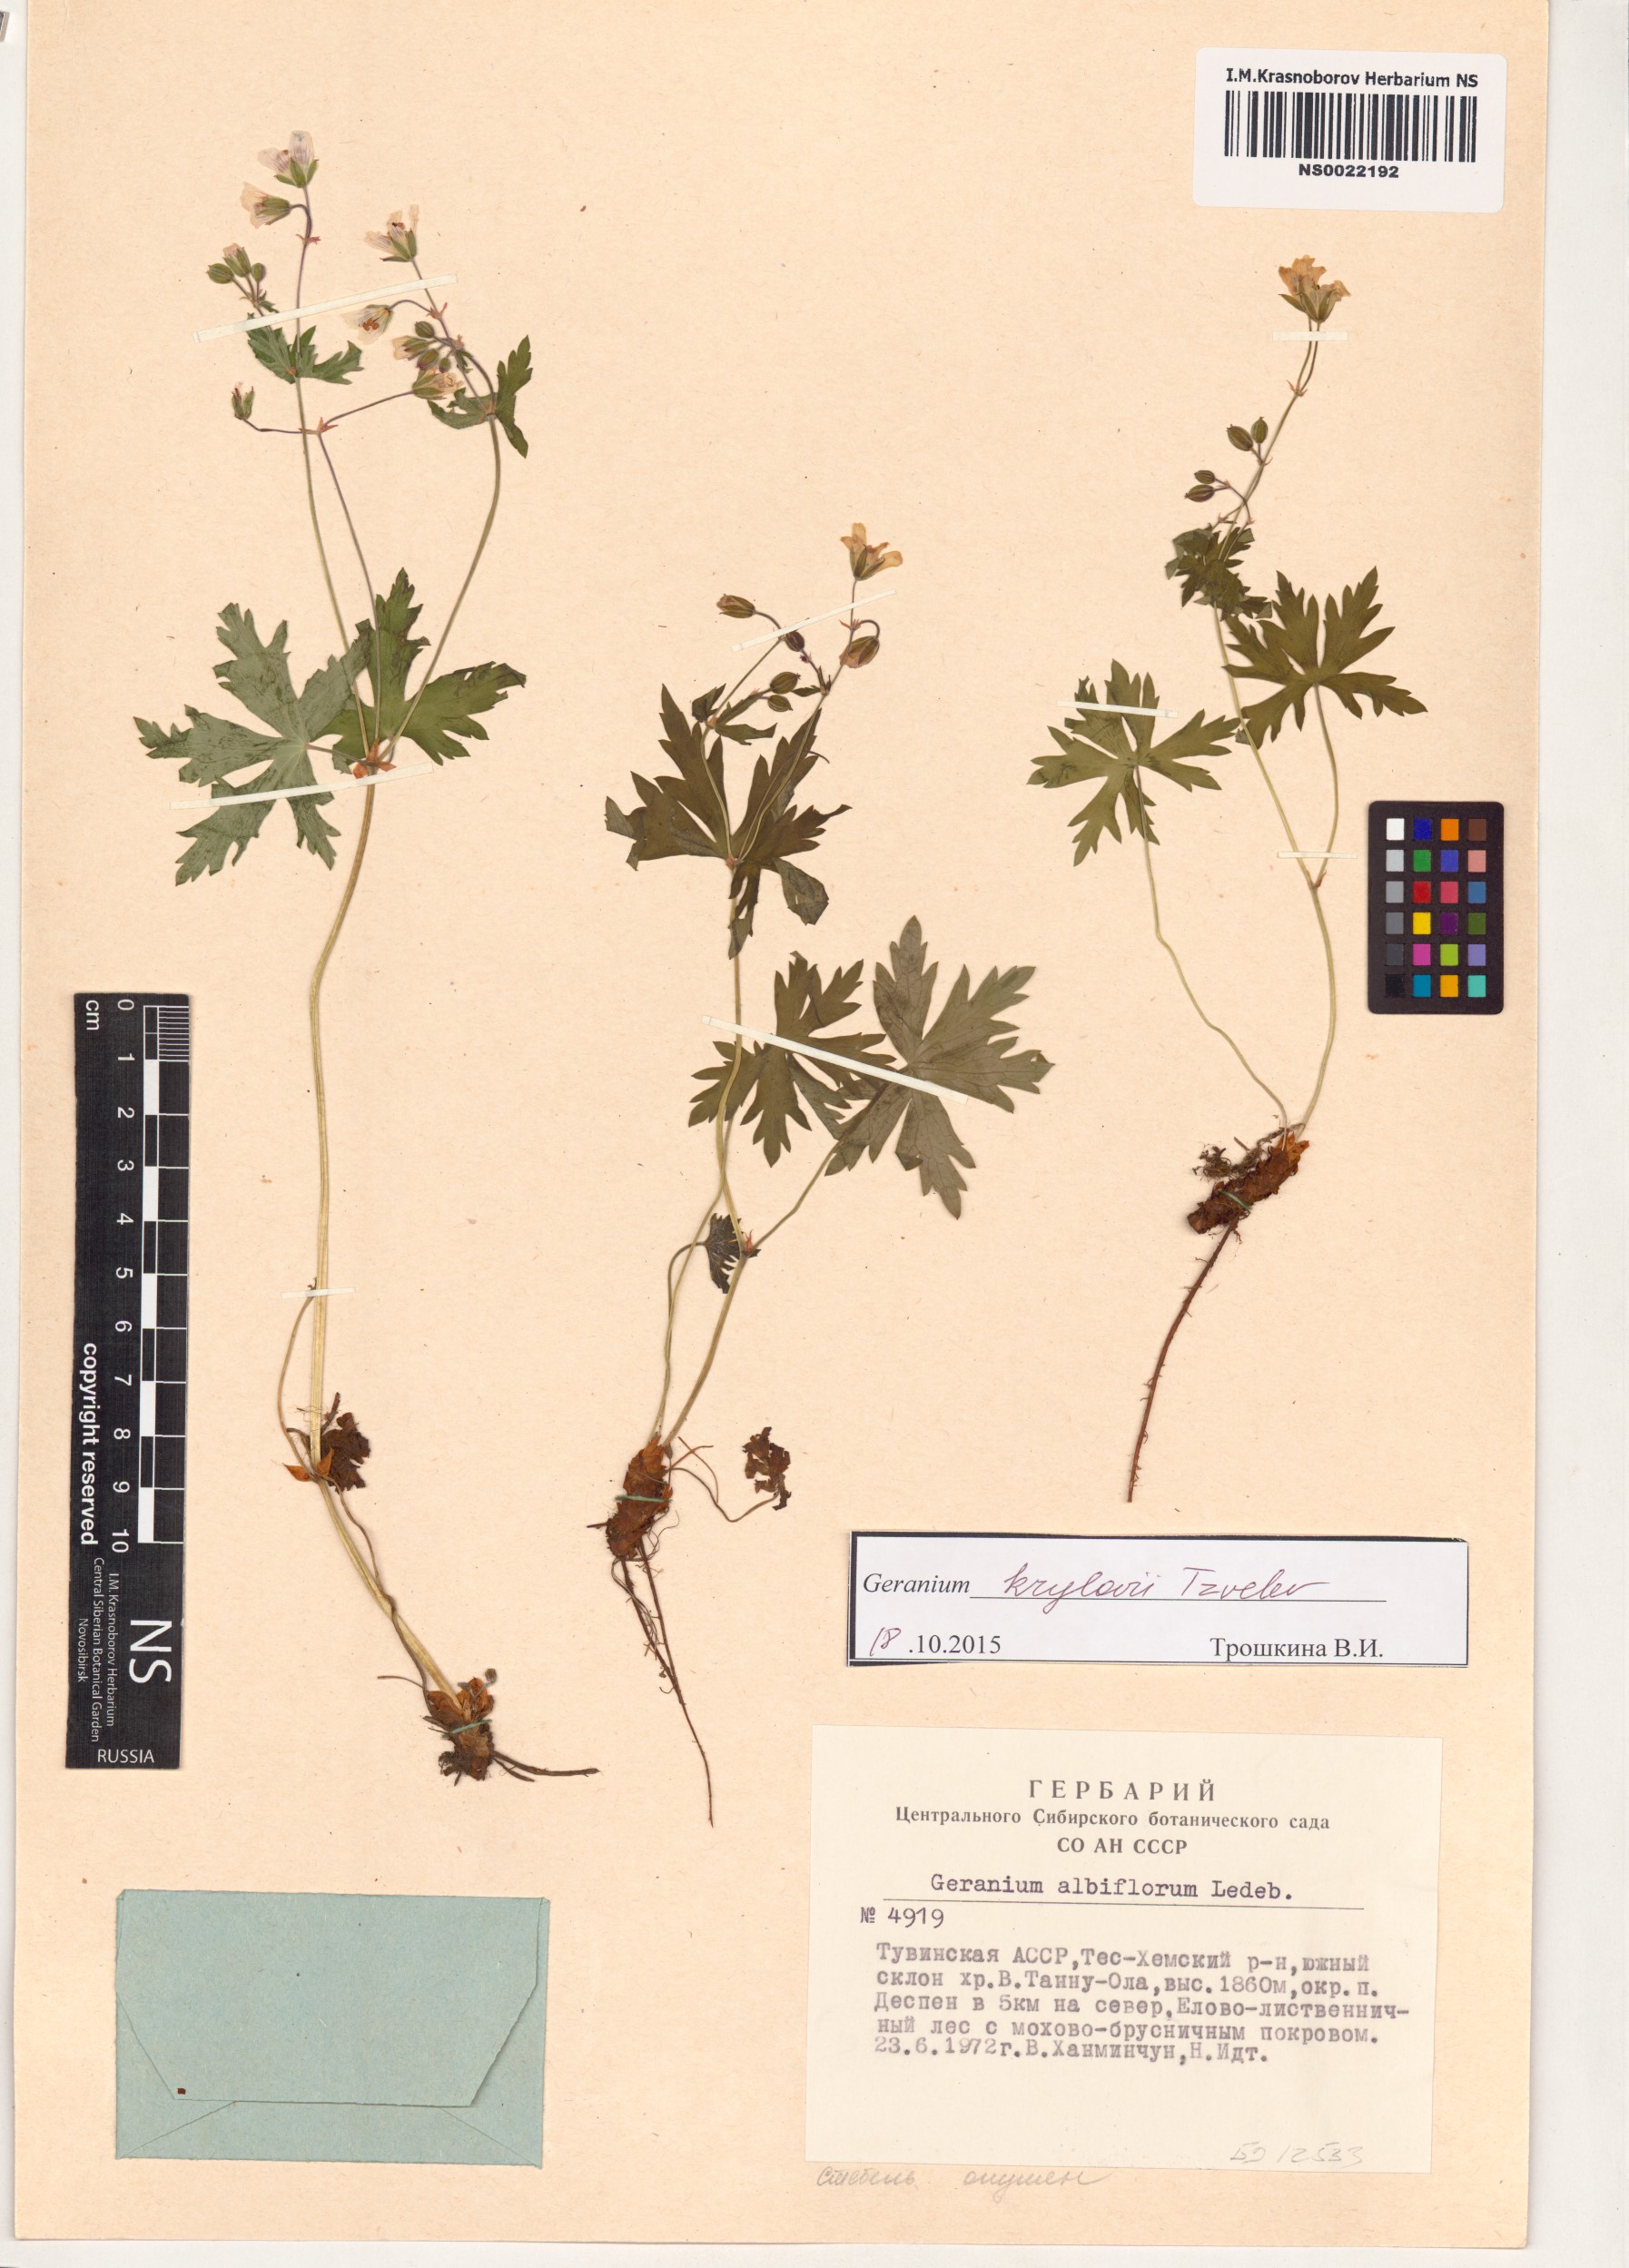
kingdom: Plantae
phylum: Tracheophyta
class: Magnoliopsida
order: Geraniales
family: Geraniaceae
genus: Geranium
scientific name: Geranium sylvaticum
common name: Wood crane's-bill
